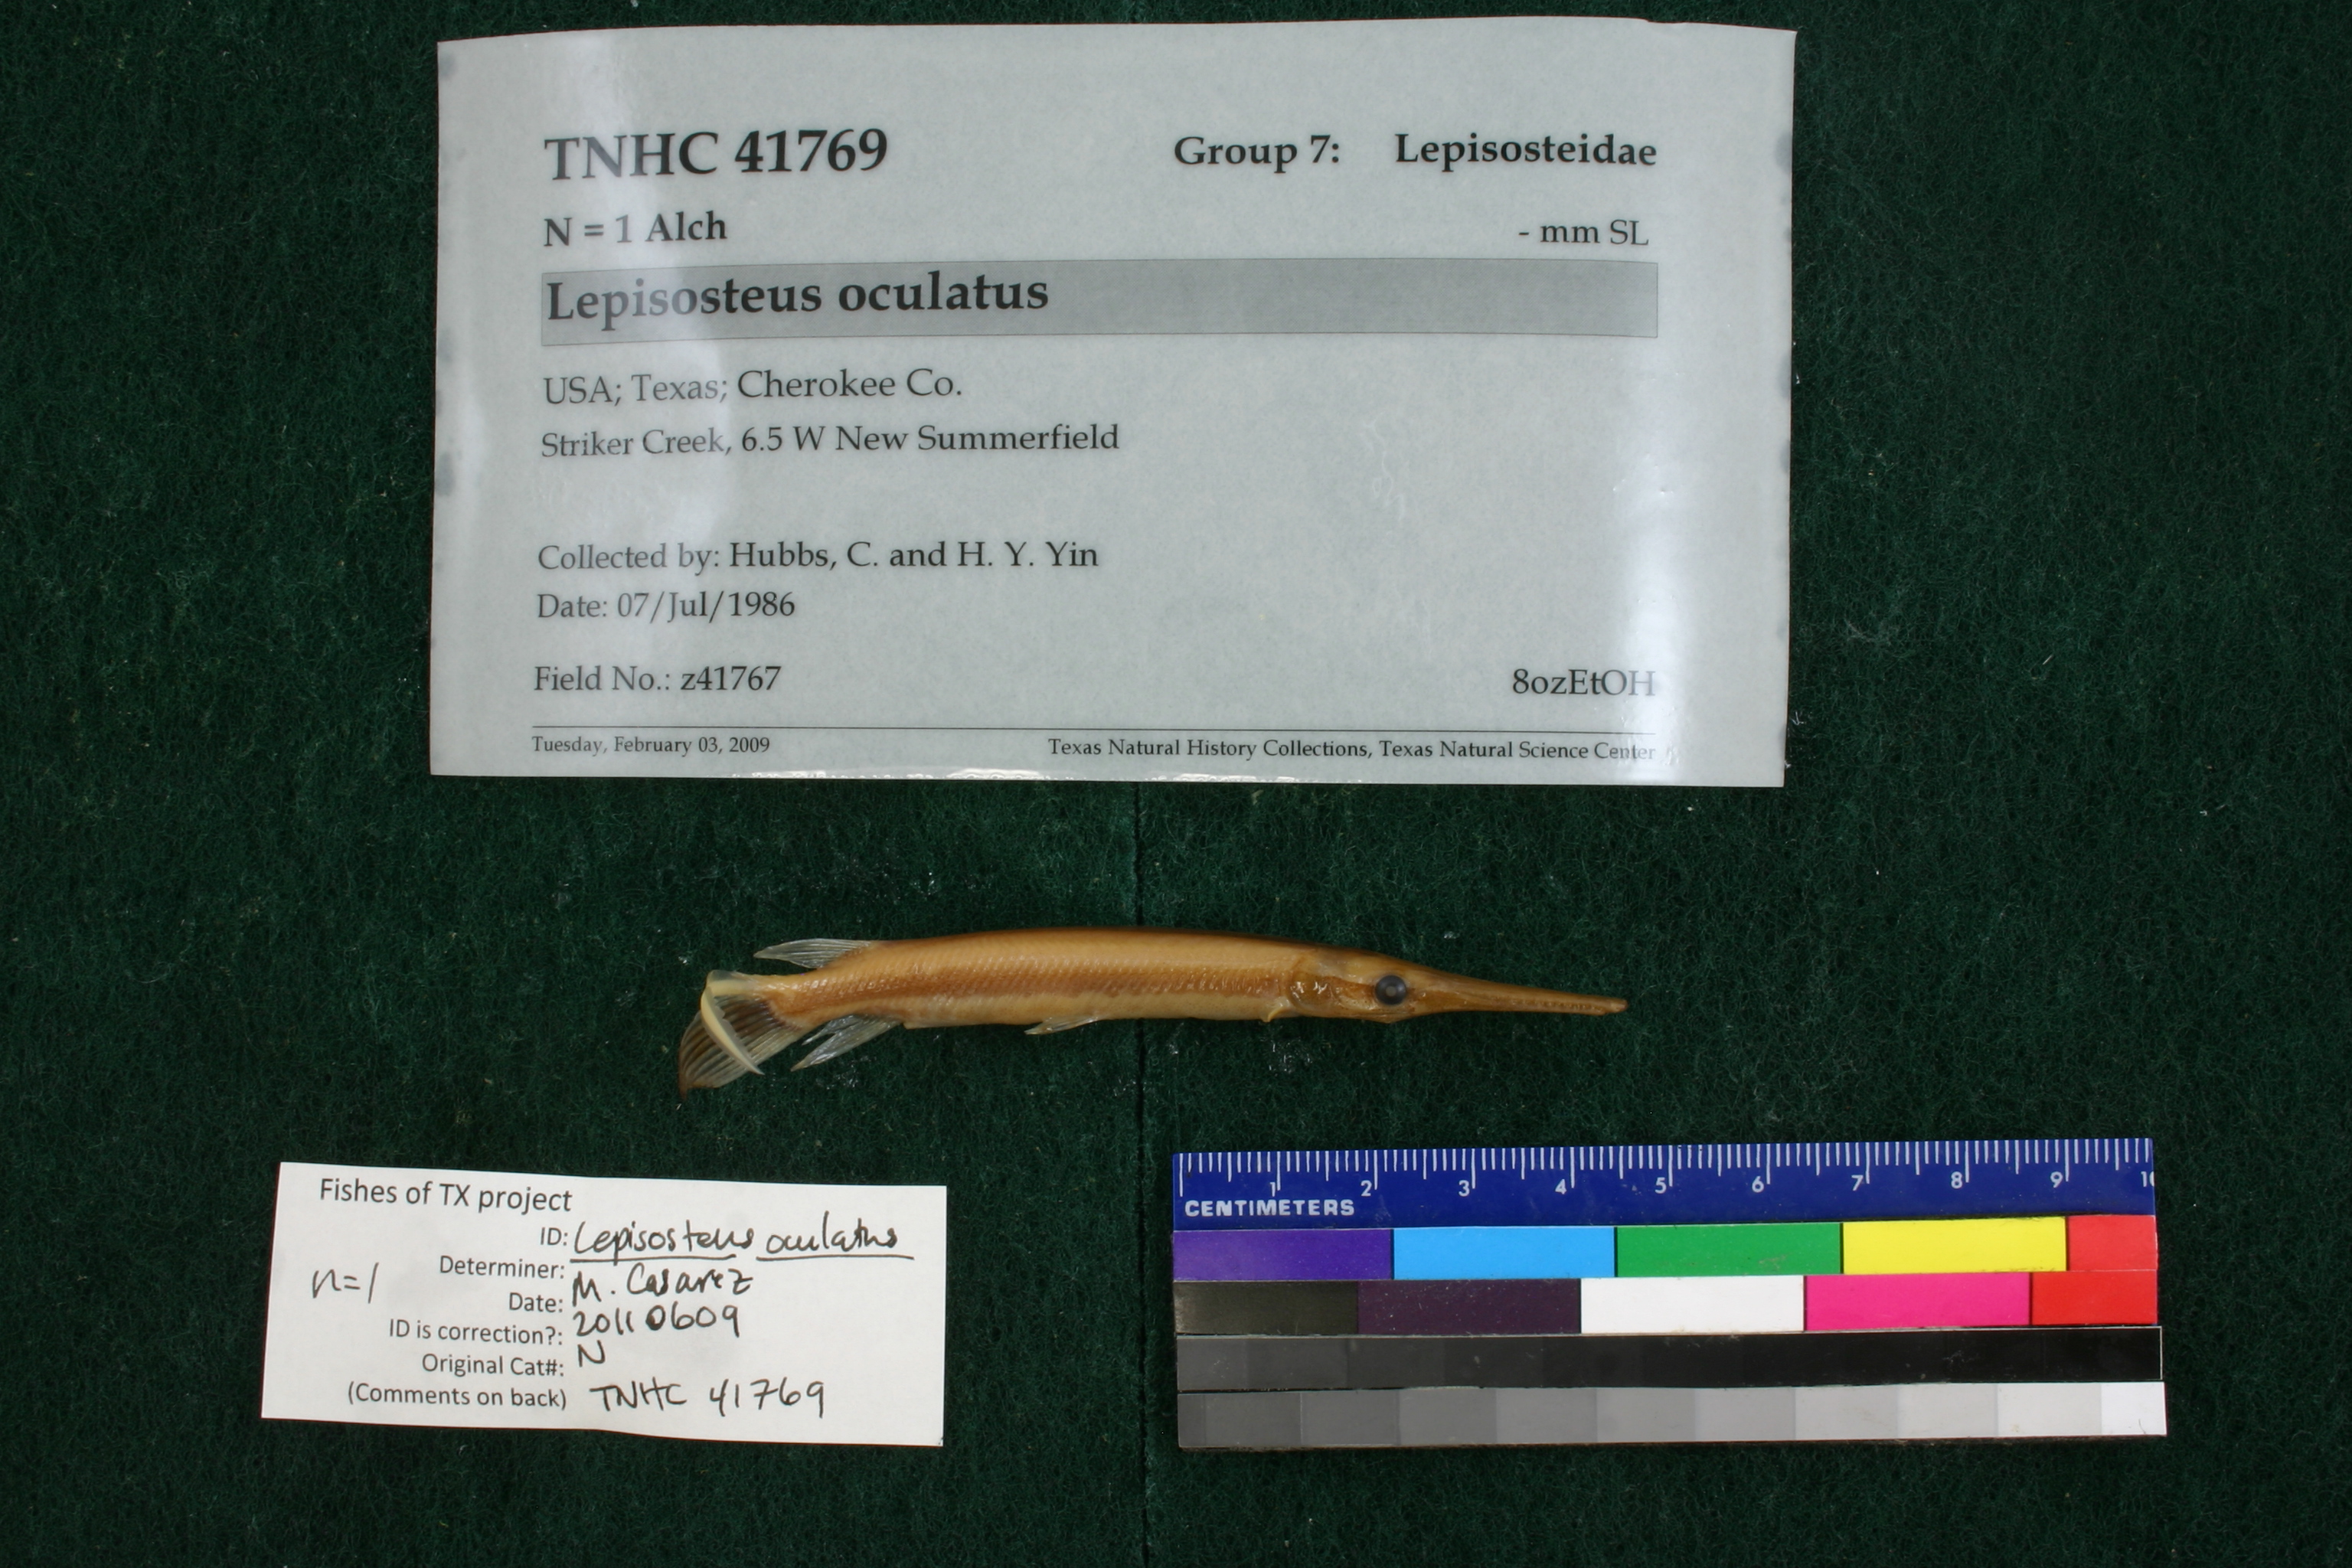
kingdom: Animalia
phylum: Chordata
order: Lepisosteiformes
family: Lepisosteidae
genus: Lepisosteus
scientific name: Lepisosteus oculatus
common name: Spotted gar
